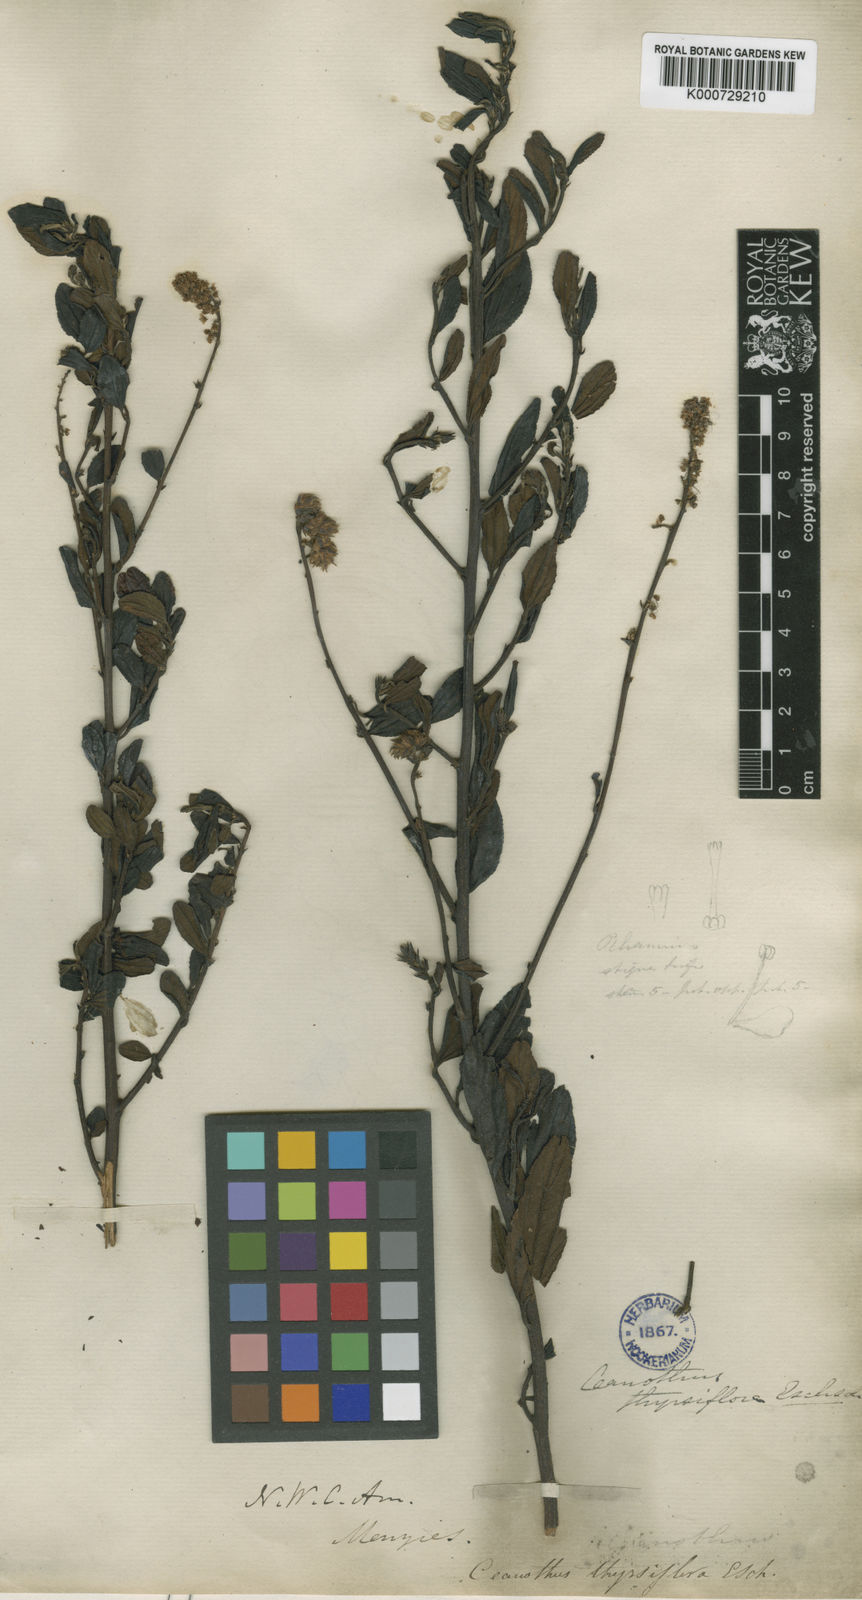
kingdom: Plantae
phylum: Tracheophyta
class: Magnoliopsida
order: Rosales
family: Rhamnaceae
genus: Ceanothus
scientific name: Ceanothus thyrsiflorus
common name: California-lilac
